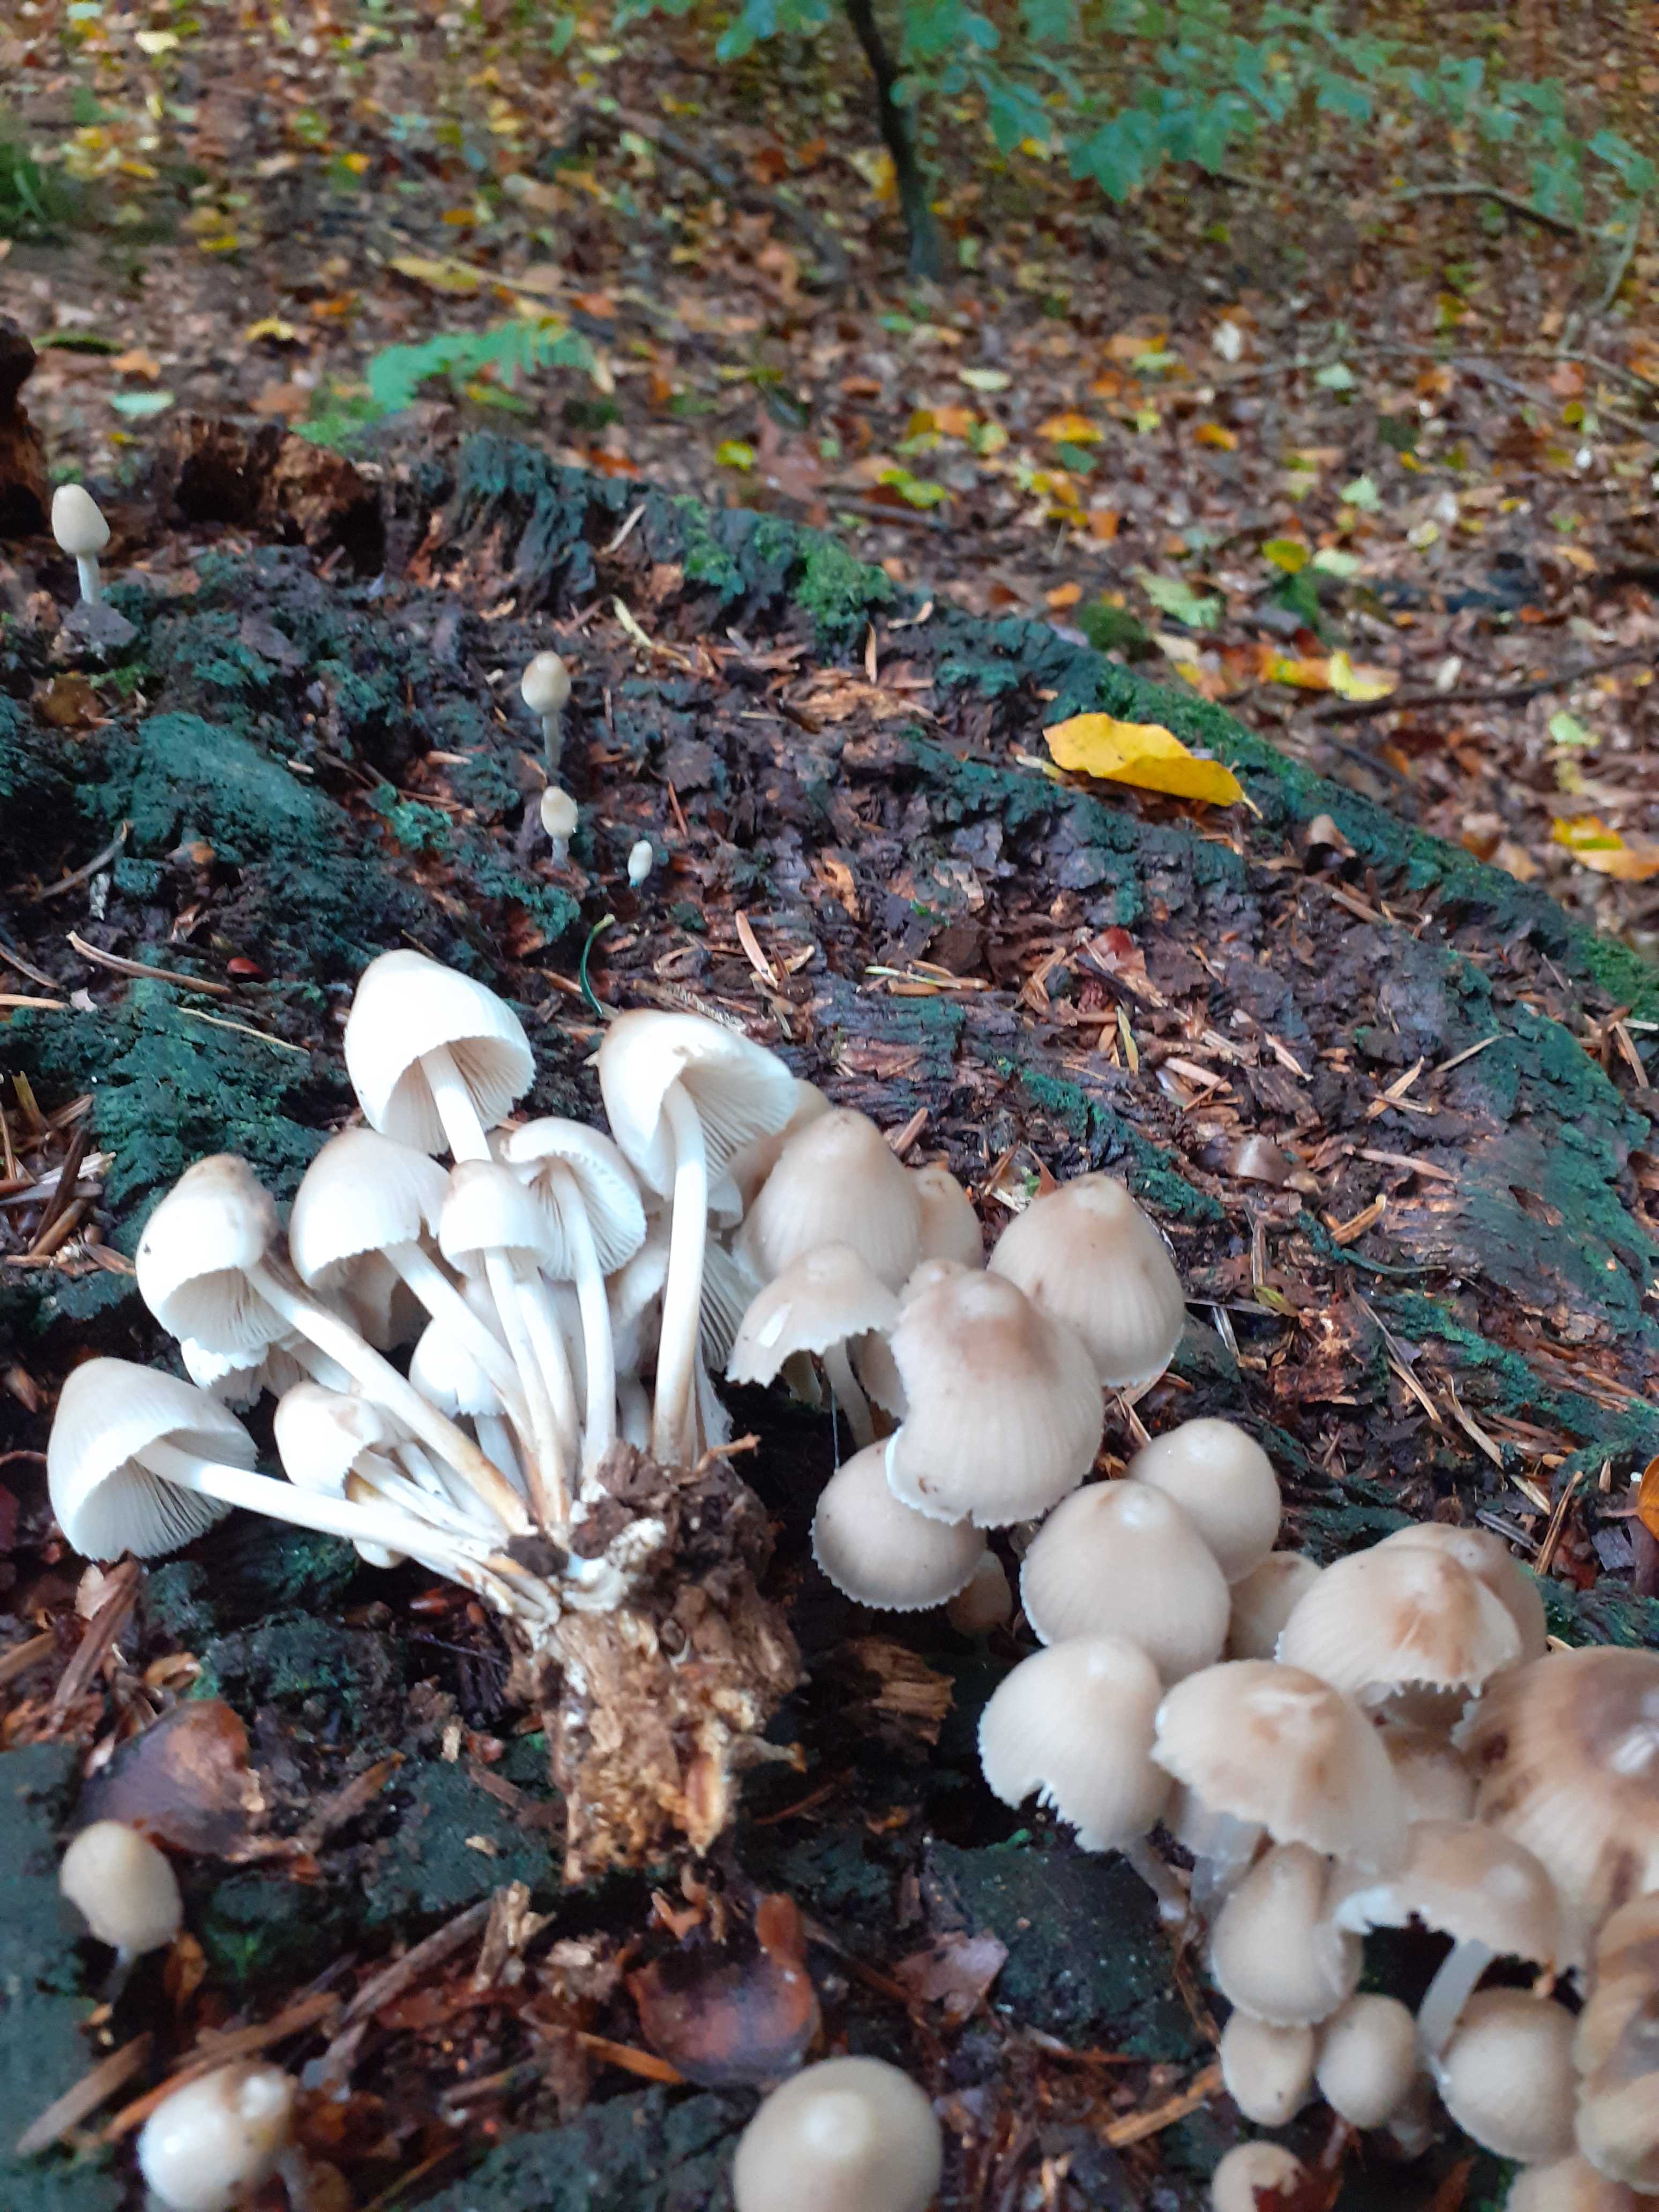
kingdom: Fungi
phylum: Basidiomycota
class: Agaricomycetes
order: Agaricales
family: Mycenaceae
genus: Mycena
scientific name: Mycena inclinata
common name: nikkende huesvamp
